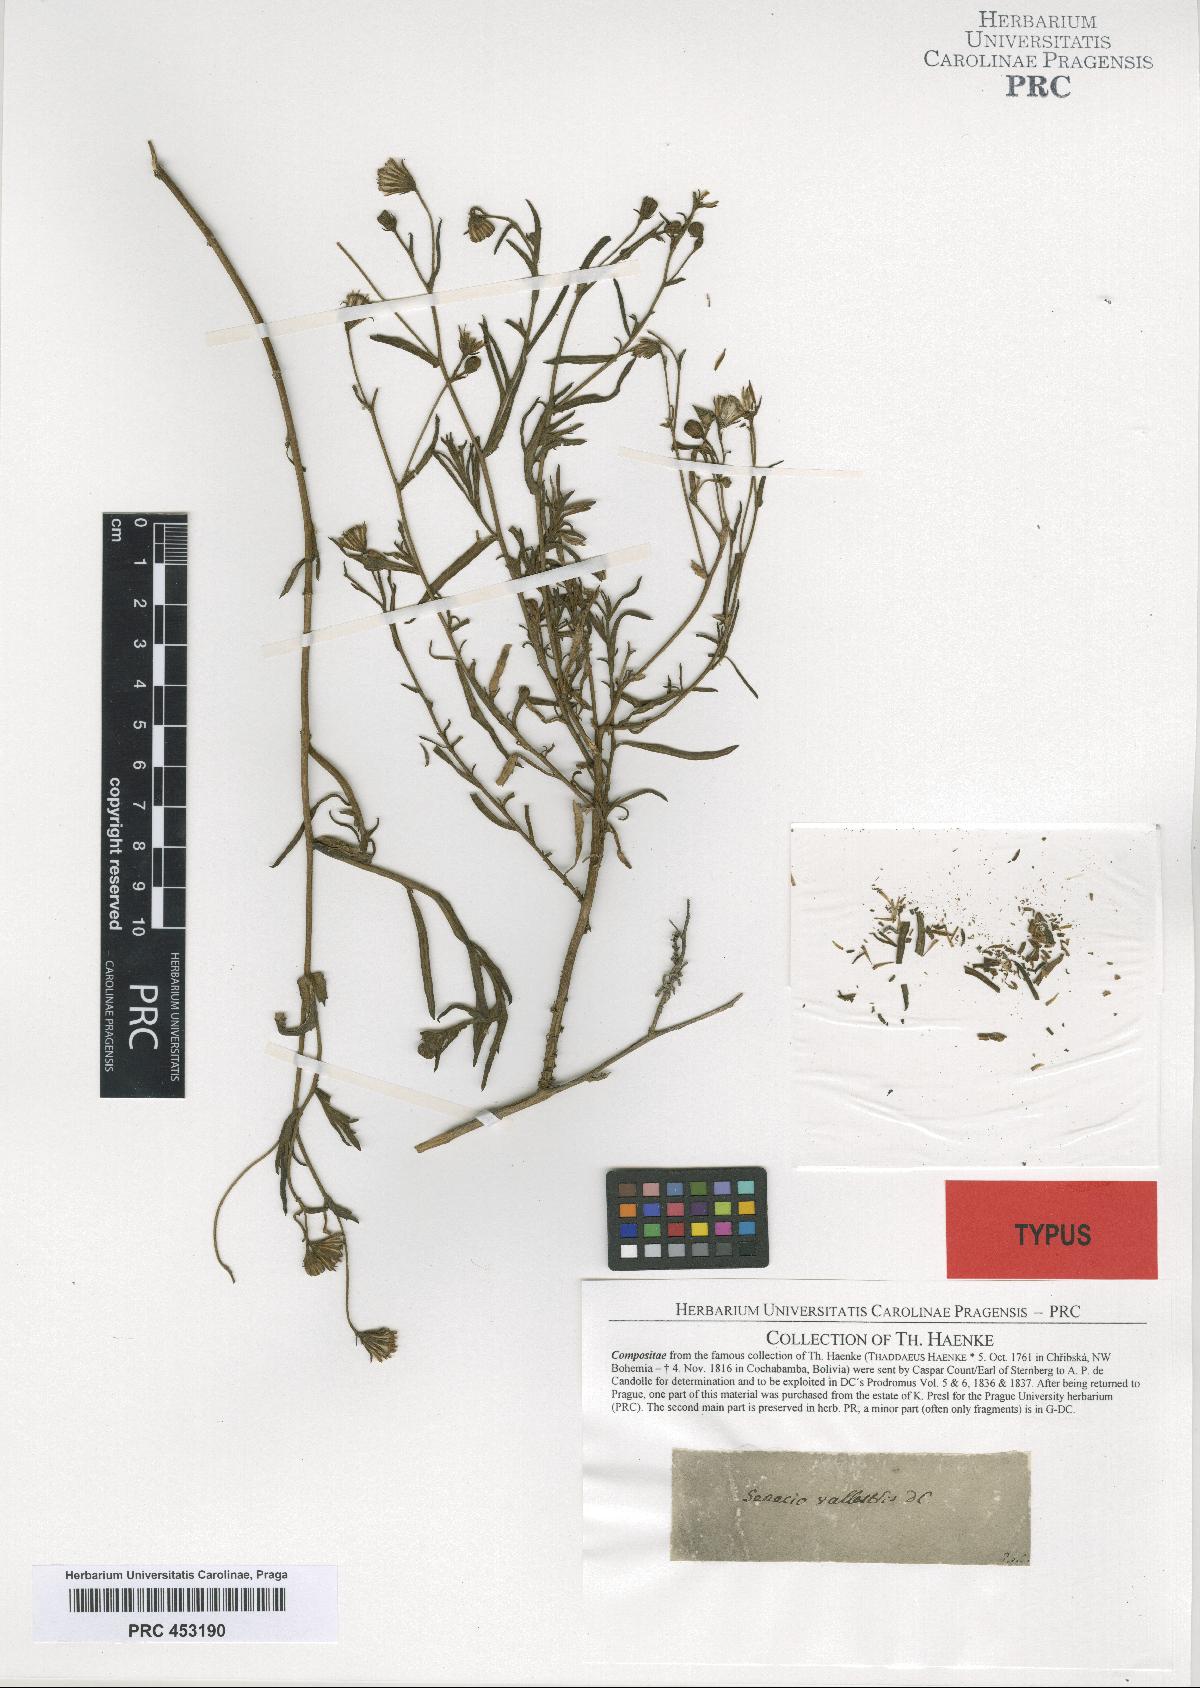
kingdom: Plantae
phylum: Tracheophyta
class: Magnoliopsida
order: Asterales
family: Asteraceae
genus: Senecio
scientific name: Senecio pentlandianus
